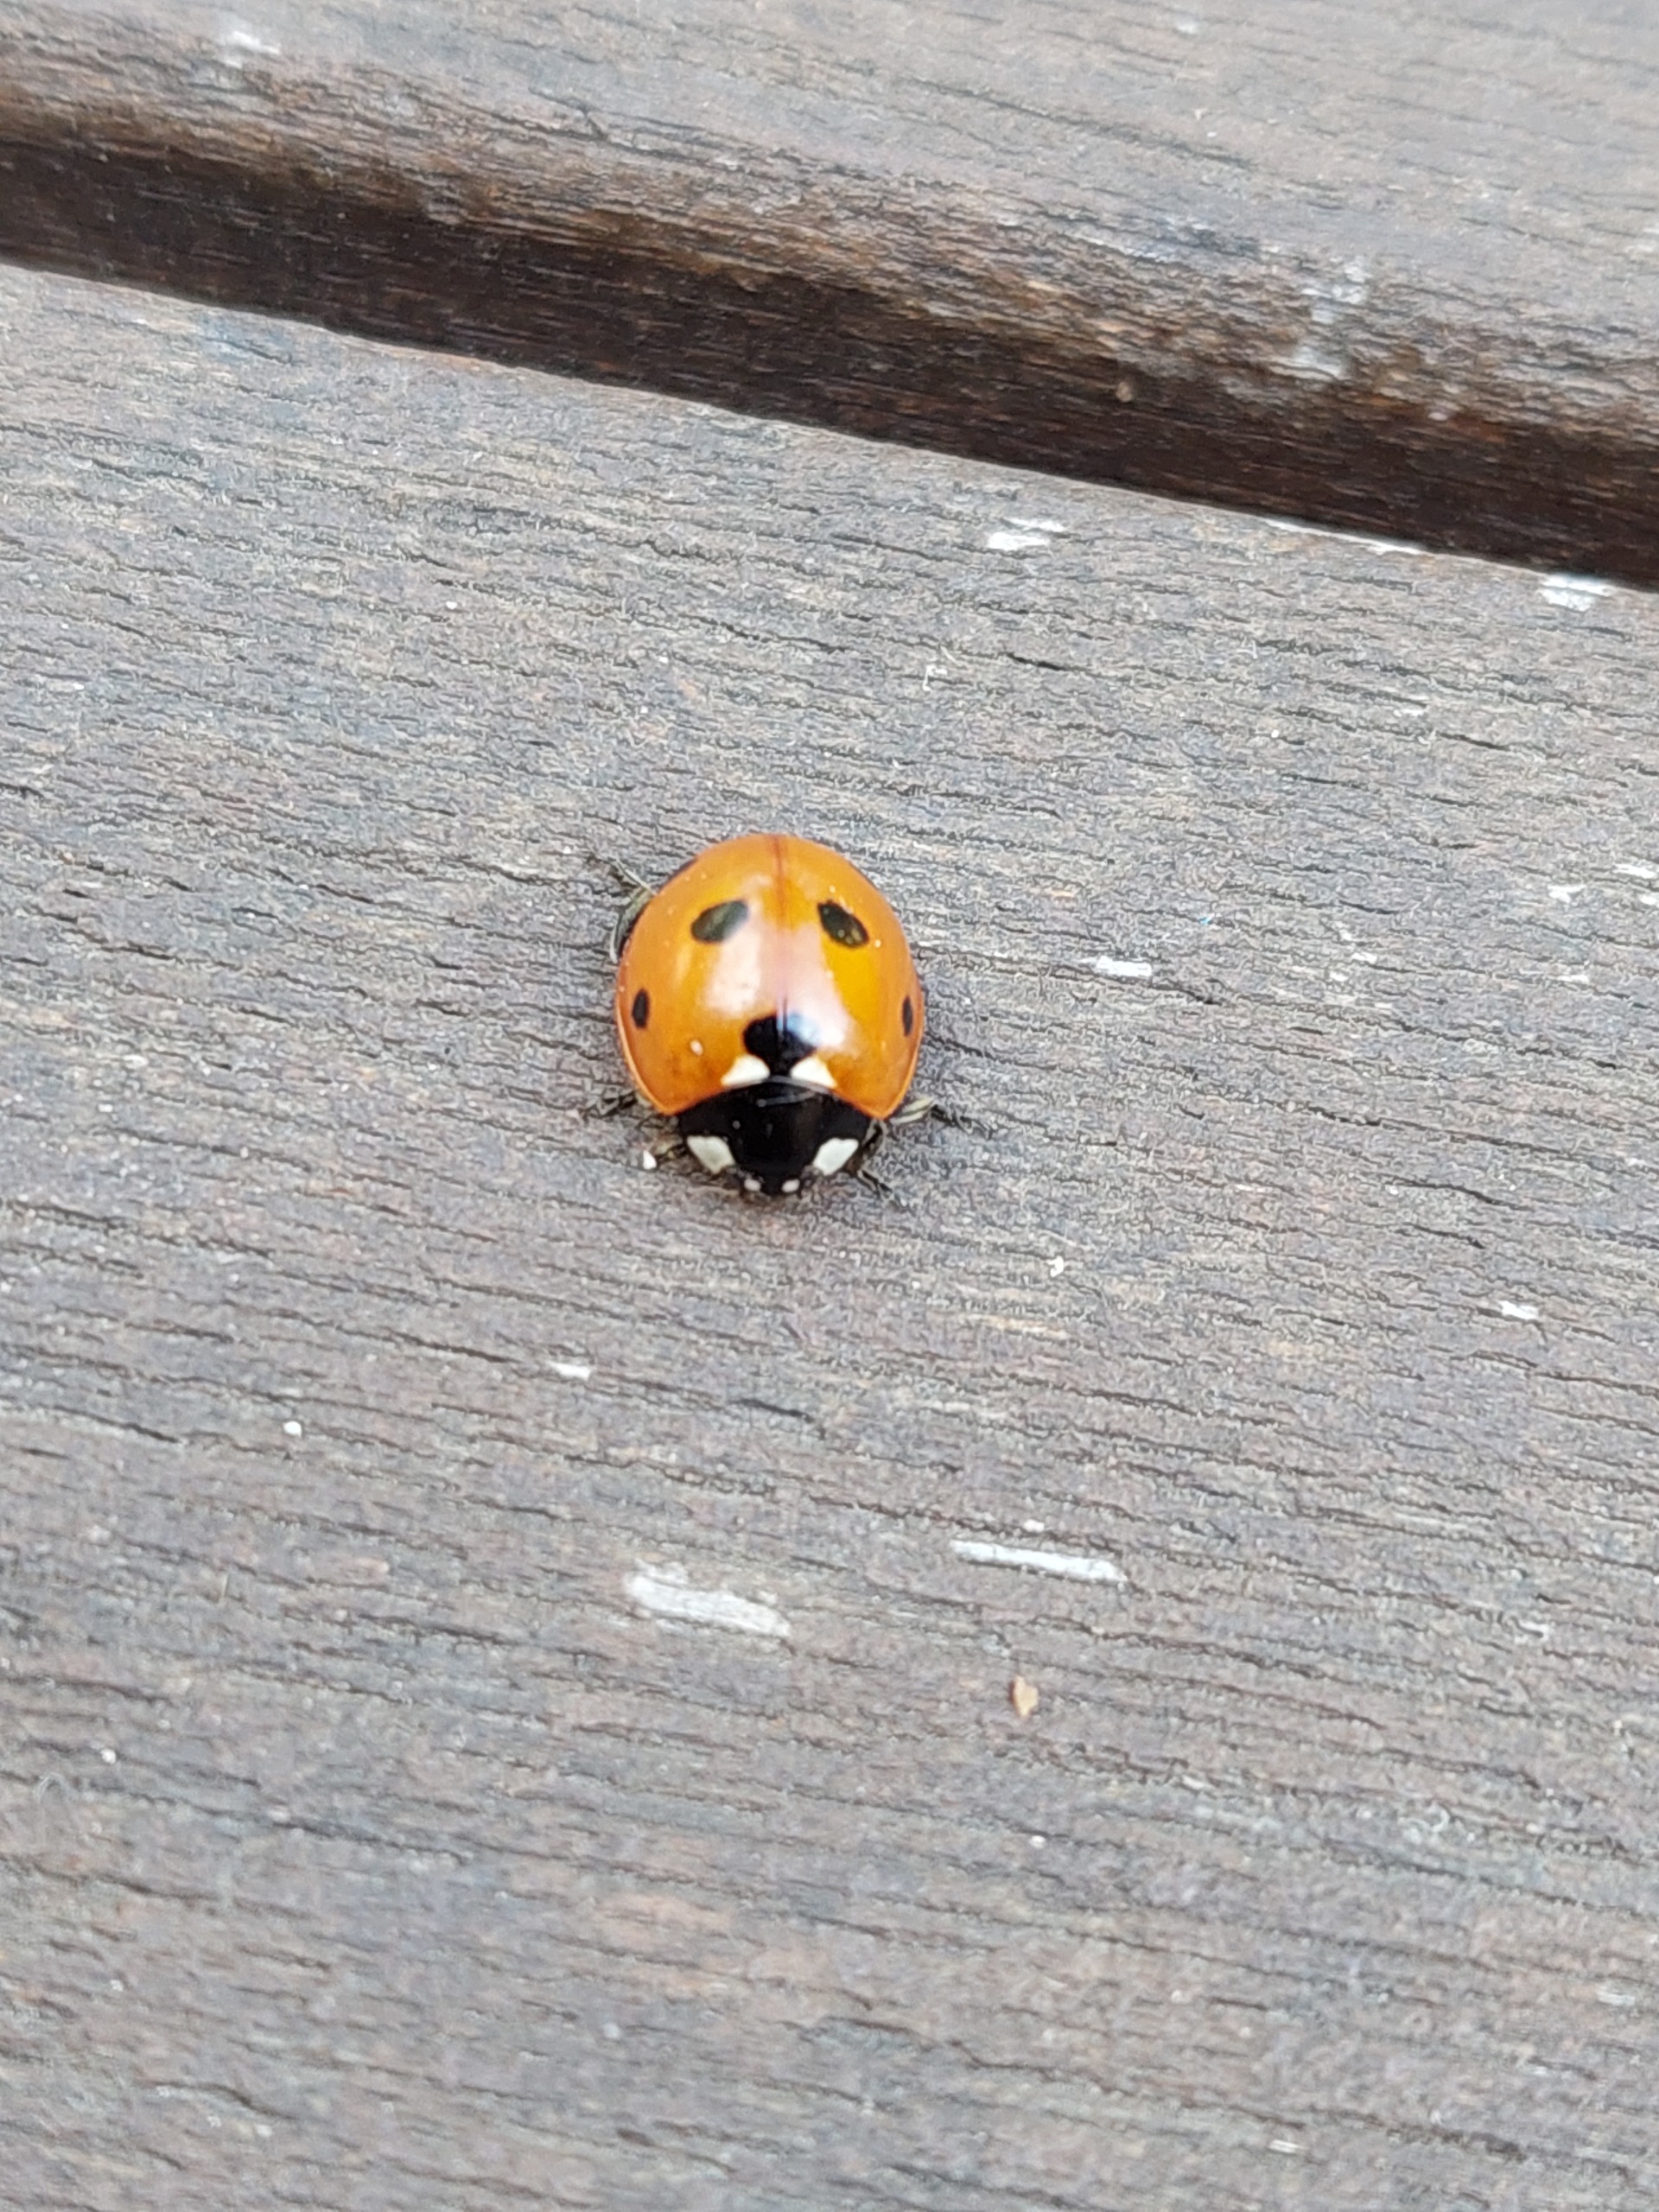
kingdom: Animalia
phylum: Arthropoda
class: Insecta
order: Coleoptera
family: Coccinellidae
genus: Coccinella
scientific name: Coccinella septempunctata
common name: Syvplettet mariehøne
